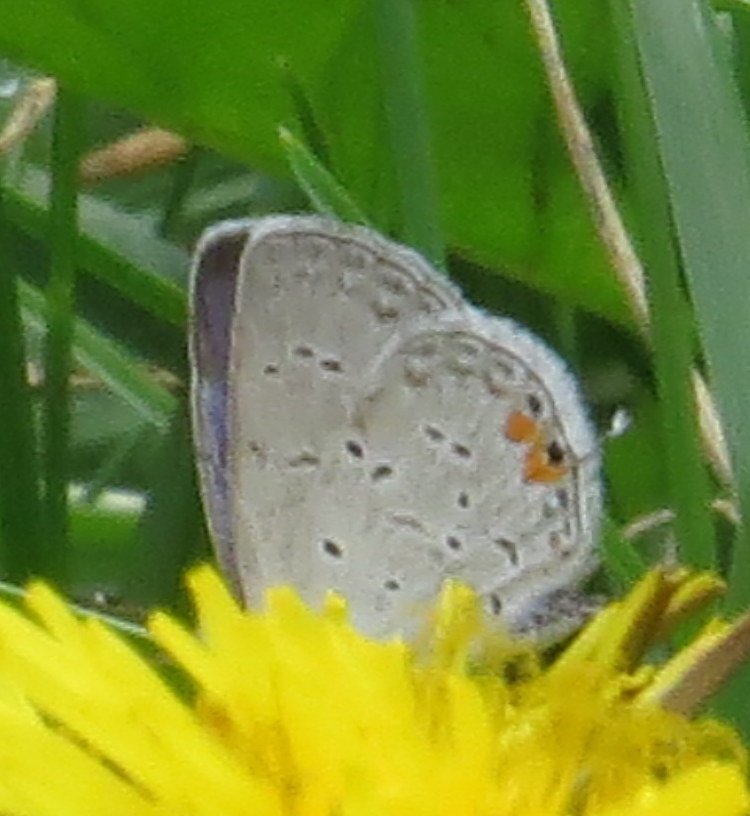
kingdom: Animalia
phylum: Arthropoda
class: Insecta
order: Lepidoptera
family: Lycaenidae
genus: Elkalyce
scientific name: Elkalyce comyntas
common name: Eastern Tailed-Blue
